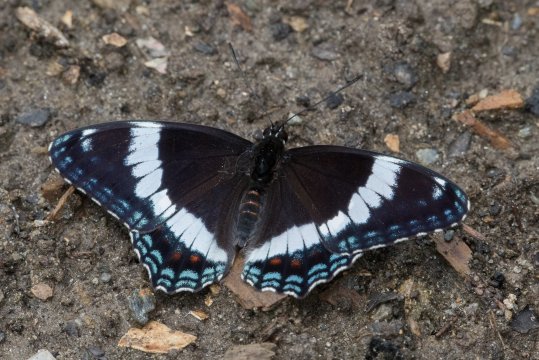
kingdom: Animalia
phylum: Arthropoda
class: Insecta
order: Lepidoptera
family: Nymphalidae
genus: Limenitis
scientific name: Limenitis arthemis
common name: Red-spotted Admiral
